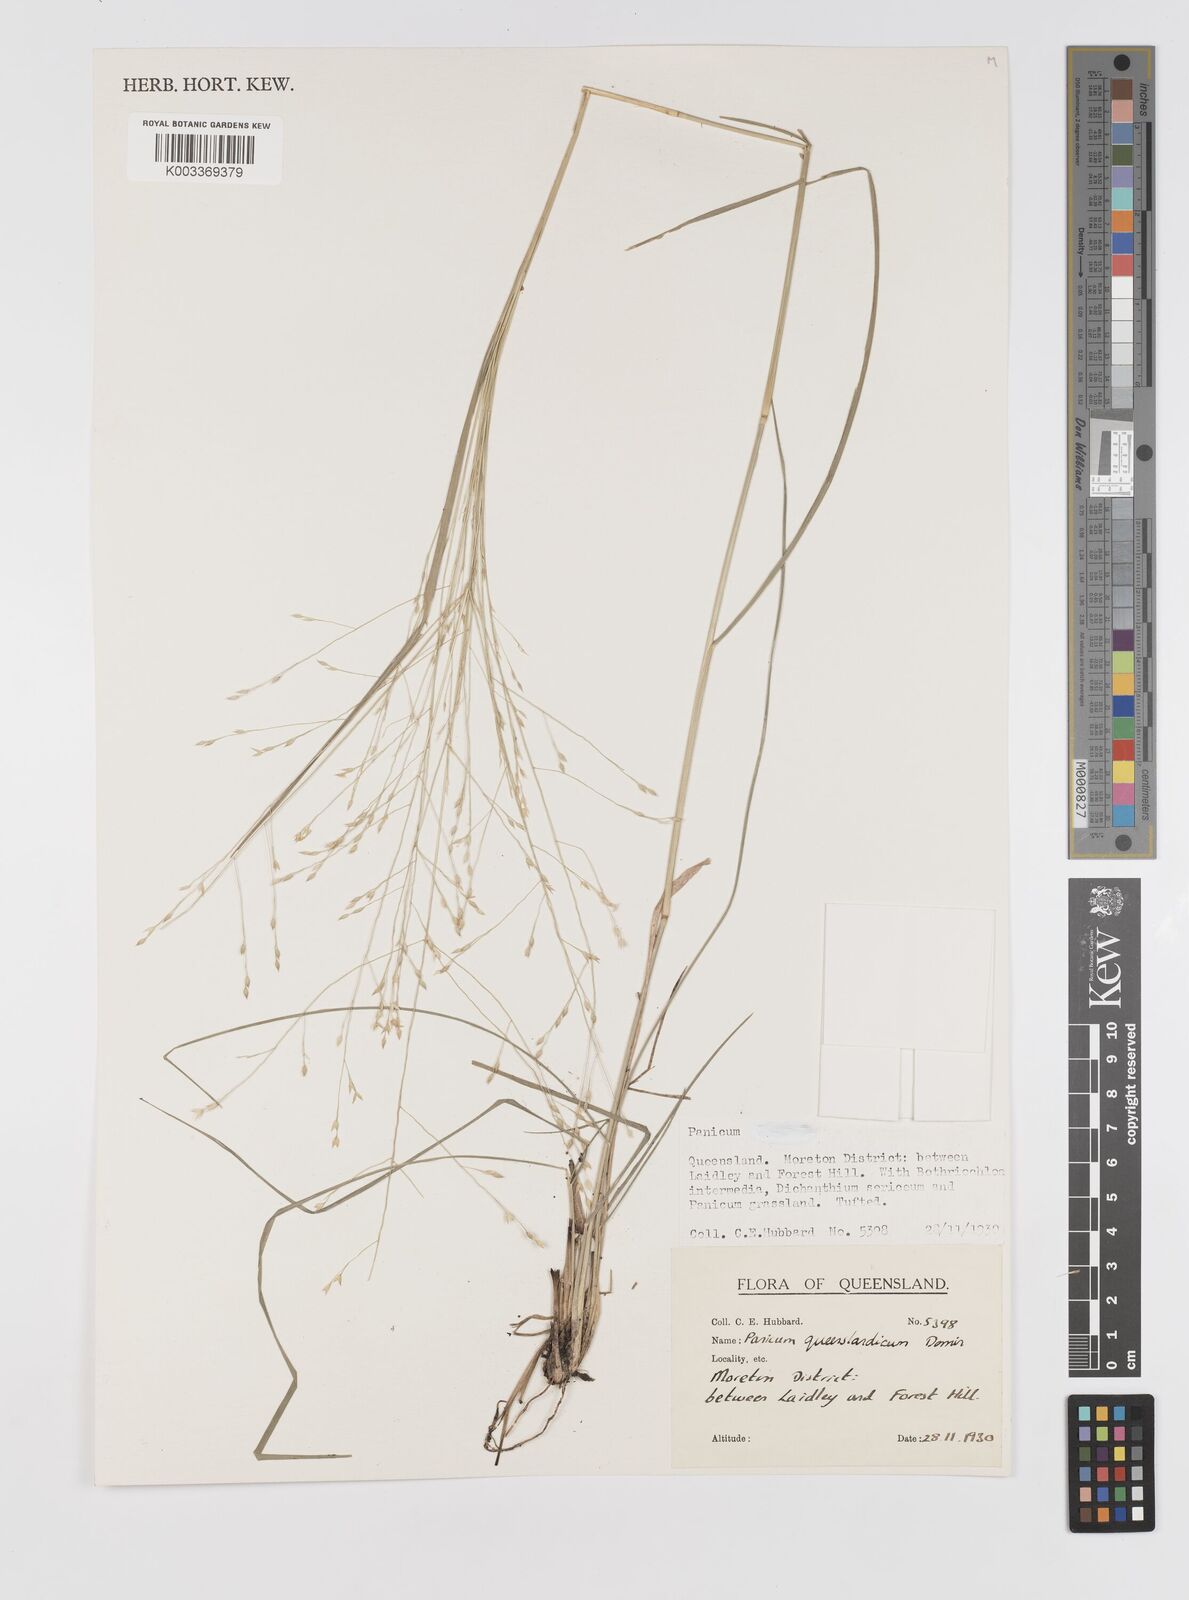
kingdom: Plantae
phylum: Tracheophyta
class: Liliopsida
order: Poales
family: Poaceae
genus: Panicum
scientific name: Panicum queenslandicum
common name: Yabila grass
